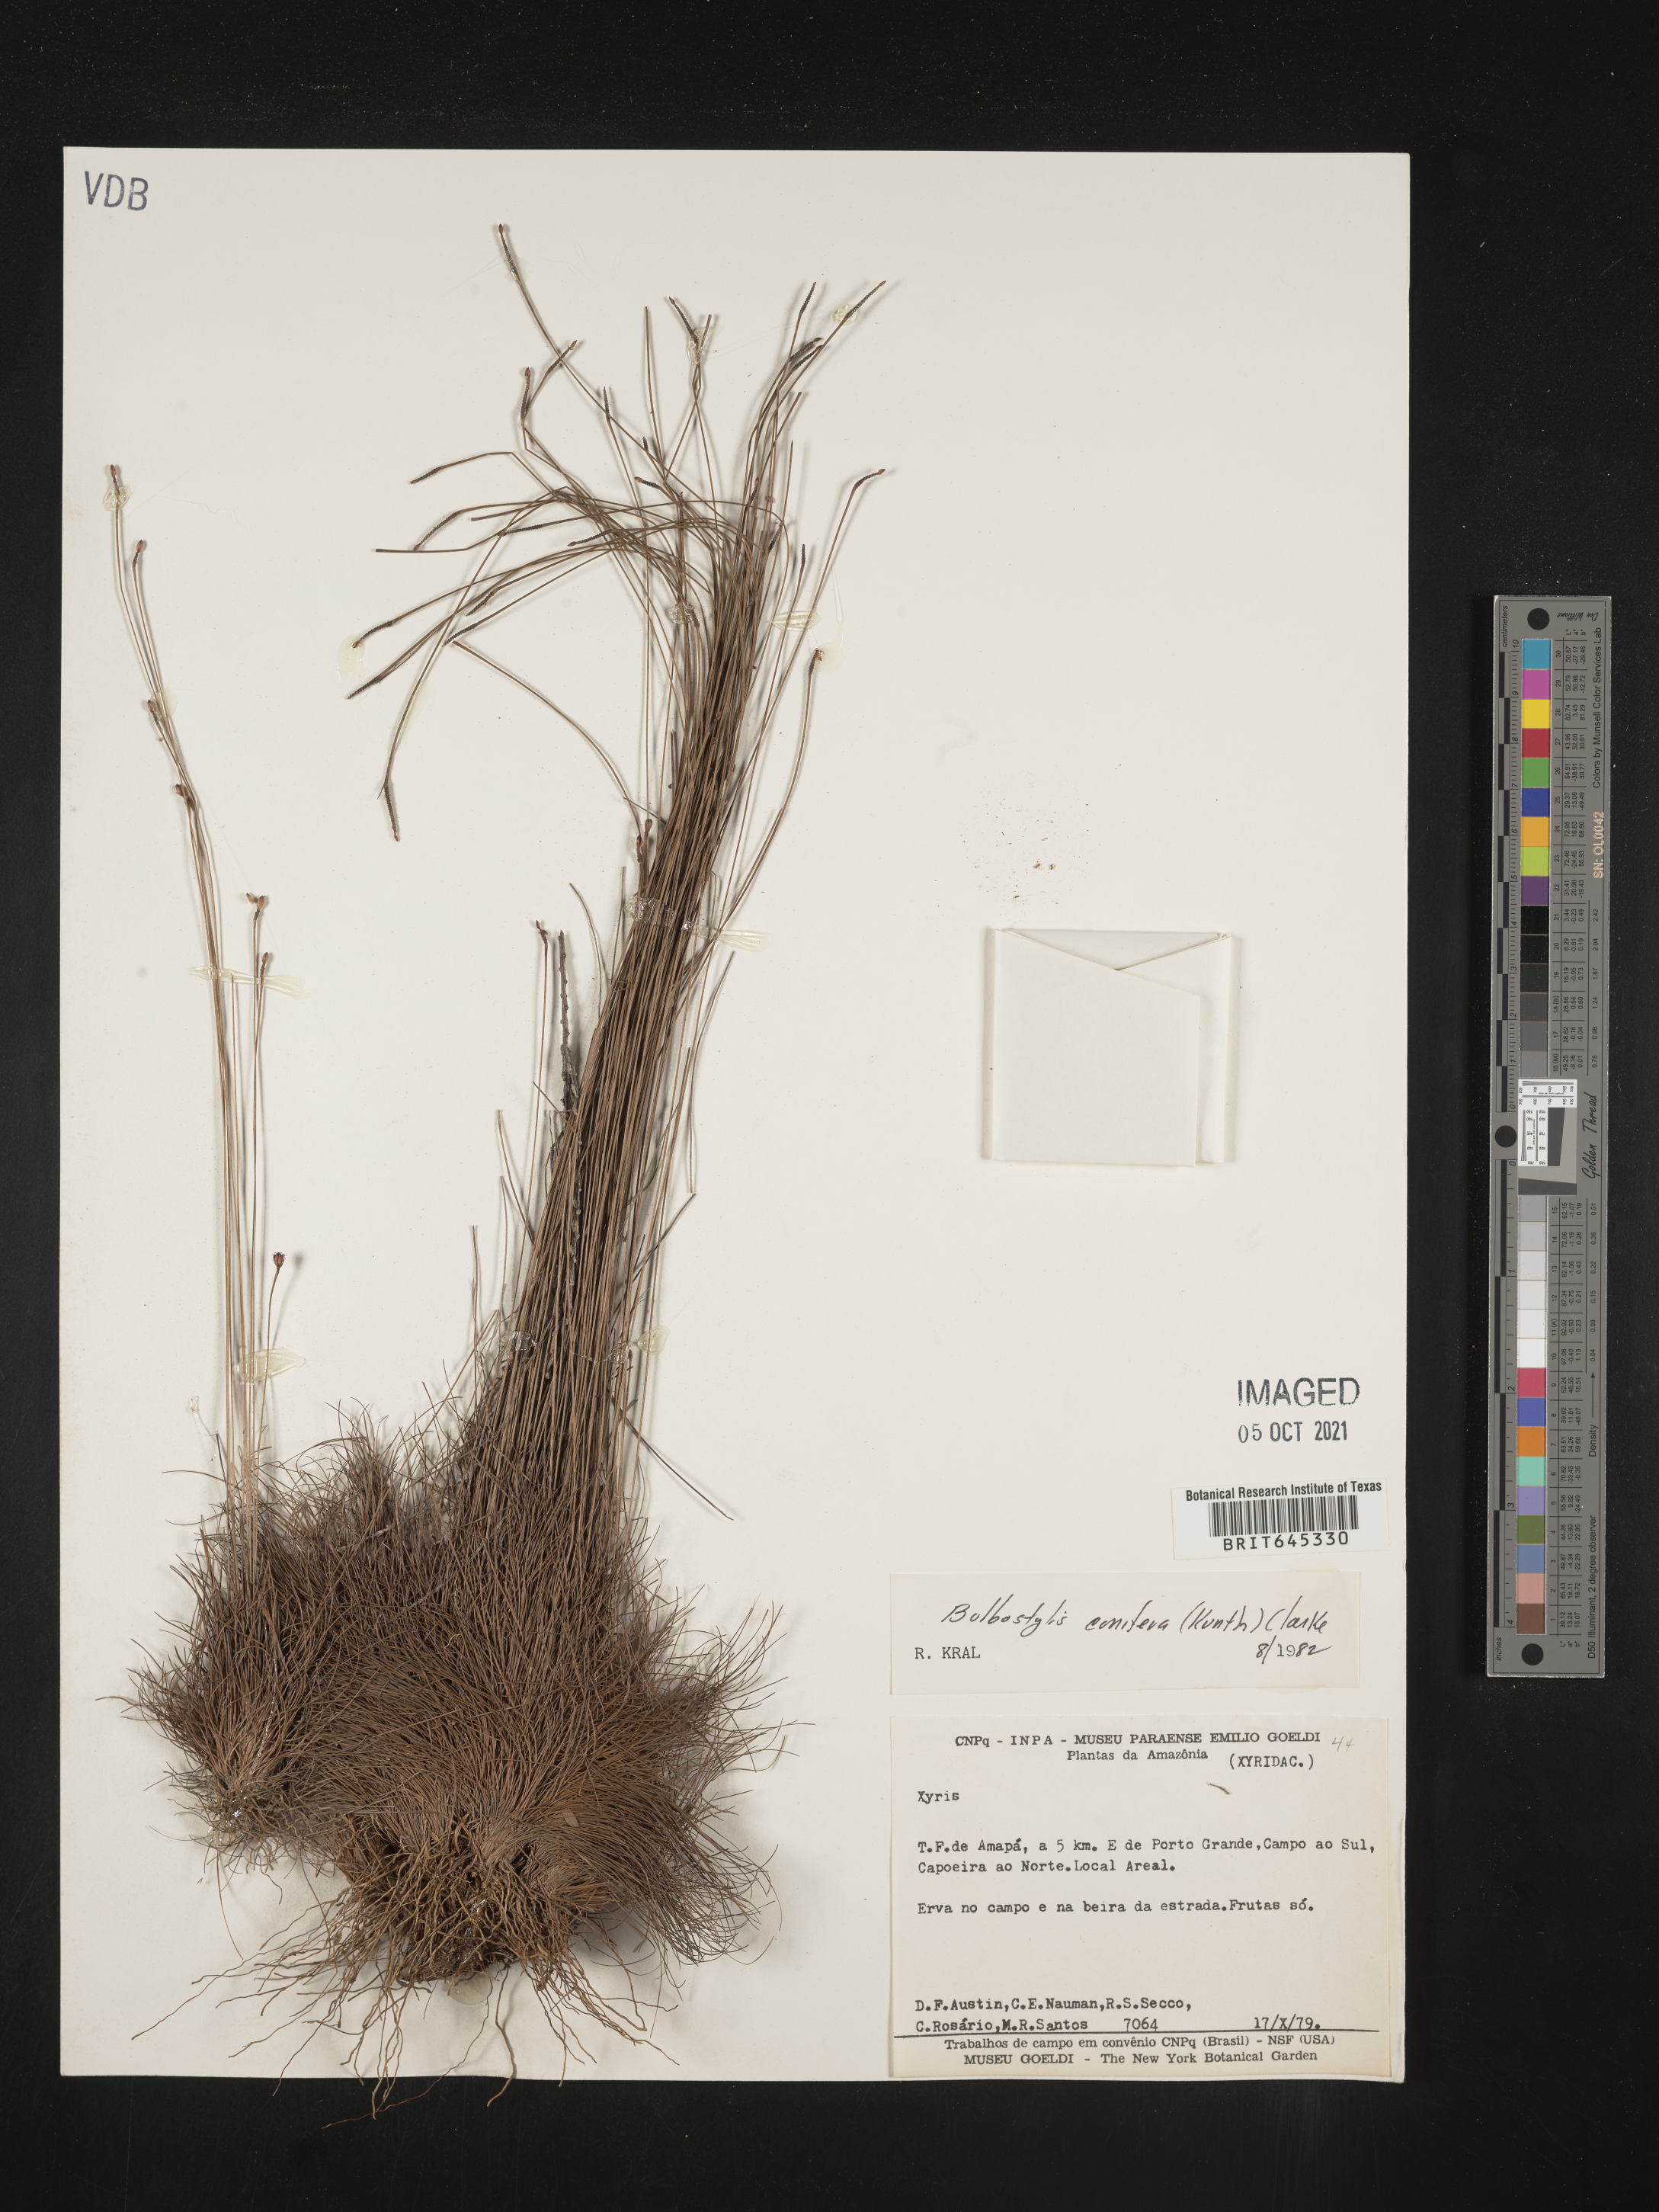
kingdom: Plantae
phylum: Tracheophyta
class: Liliopsida
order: Poales
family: Cyperaceae
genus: Bulbostylis
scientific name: Bulbostylis conifera
